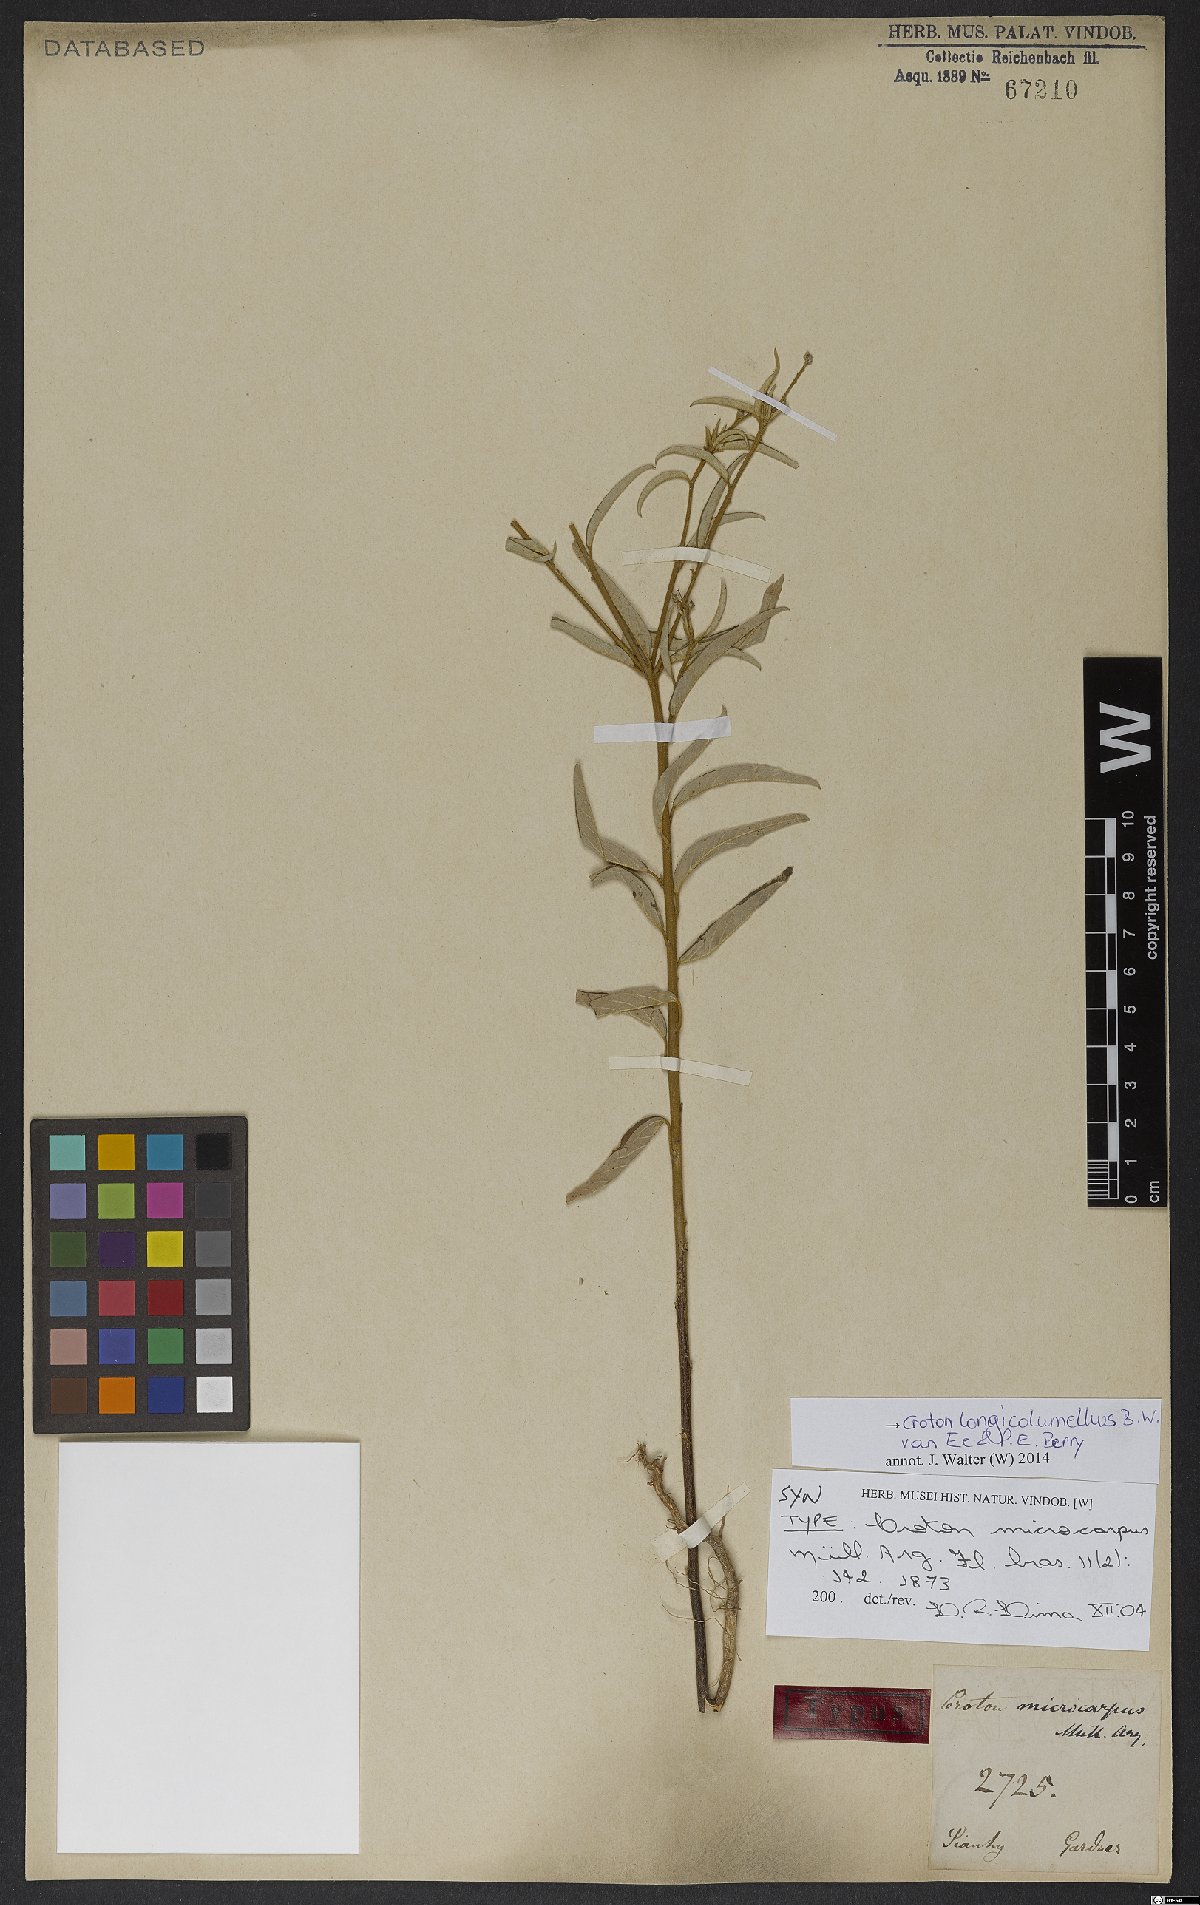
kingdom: Plantae
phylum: Tracheophyta
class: Magnoliopsida
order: Malpighiales
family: Euphorbiaceae
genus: Croton
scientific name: Croton longicolumellus
